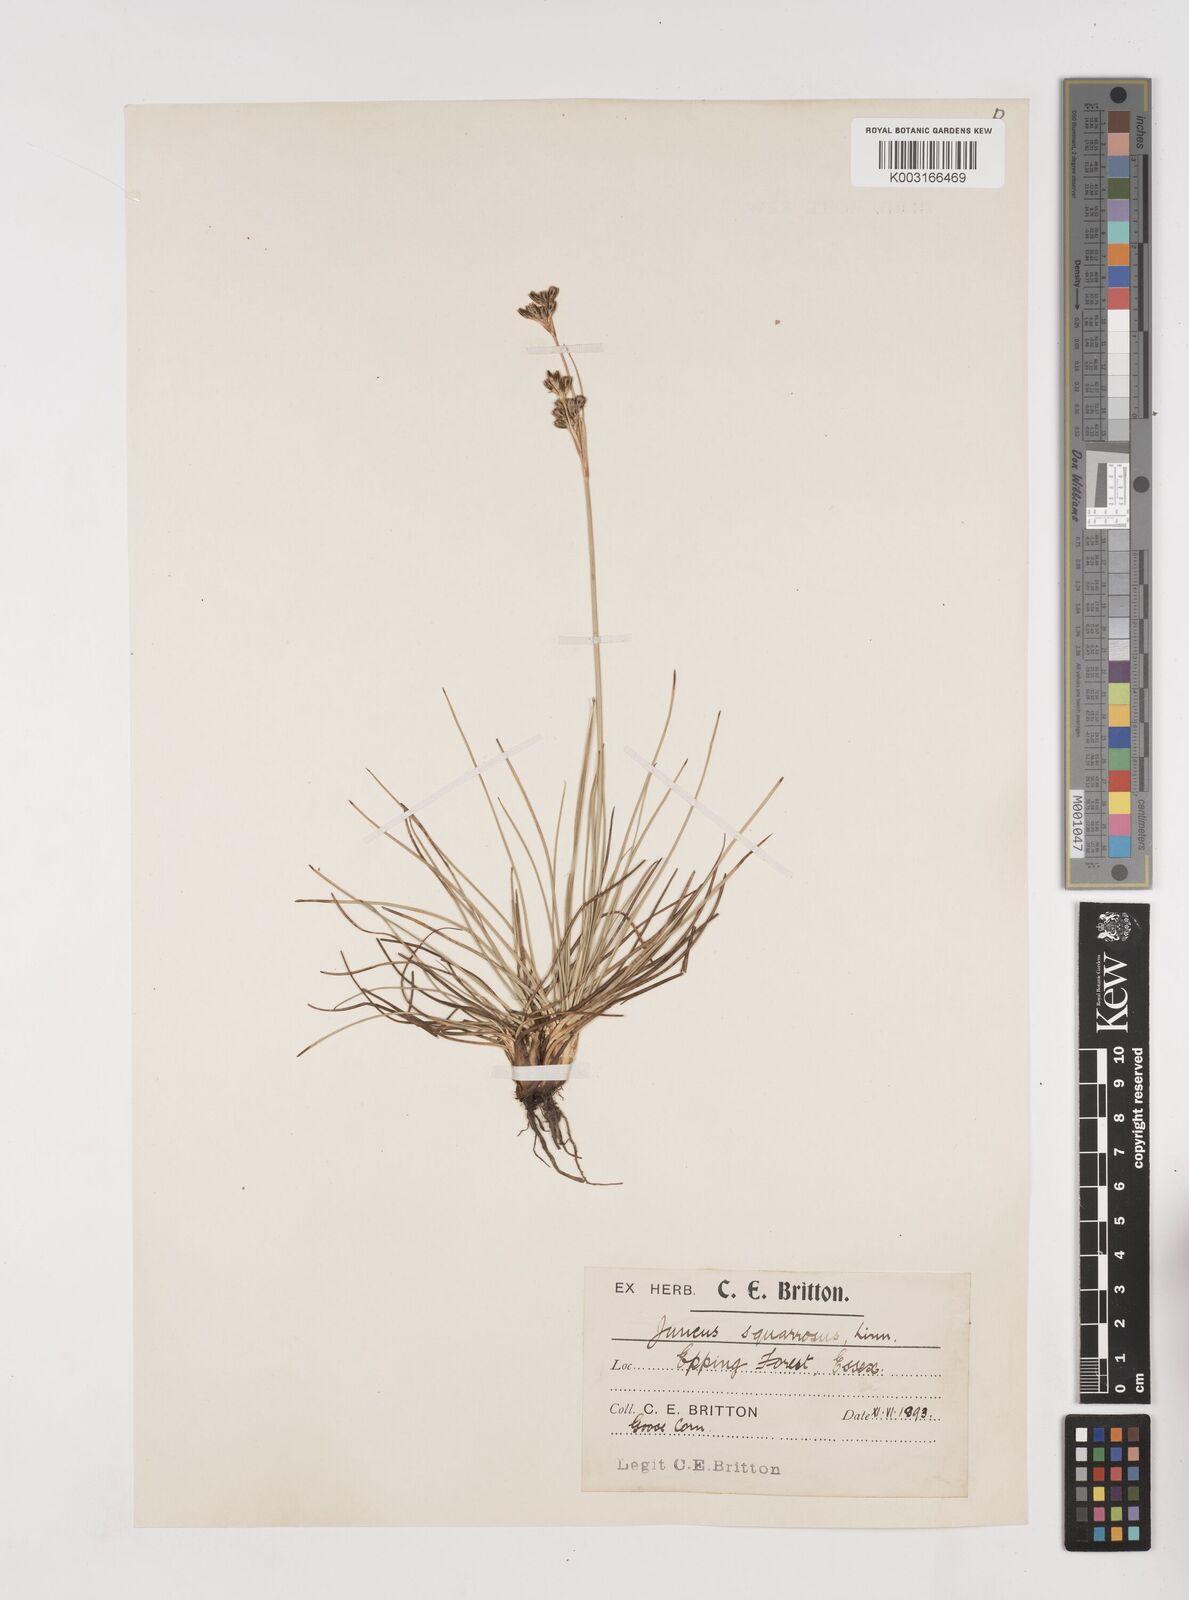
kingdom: Plantae
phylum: Tracheophyta
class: Liliopsida
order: Poales
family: Juncaceae
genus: Juncus
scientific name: Juncus squarrosus
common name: Heath rush
